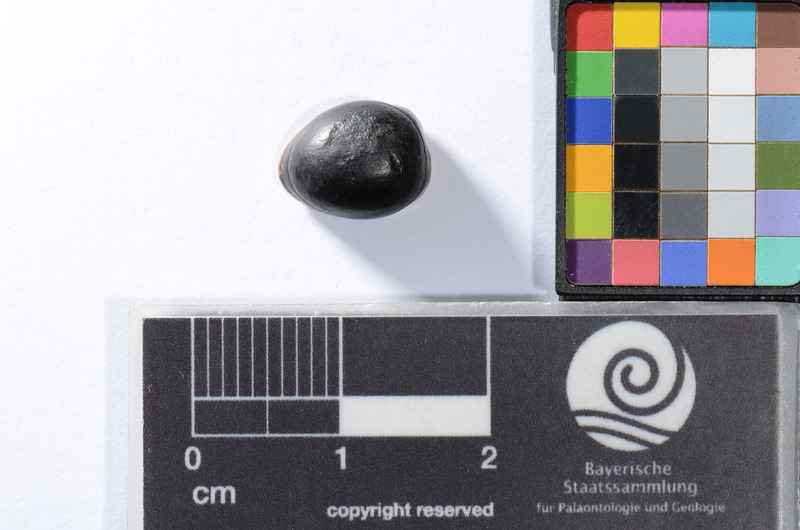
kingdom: Animalia
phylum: Chordata
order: Anguilliformes
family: Phyllodontidae
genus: Phyllodus
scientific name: Phyllodus
